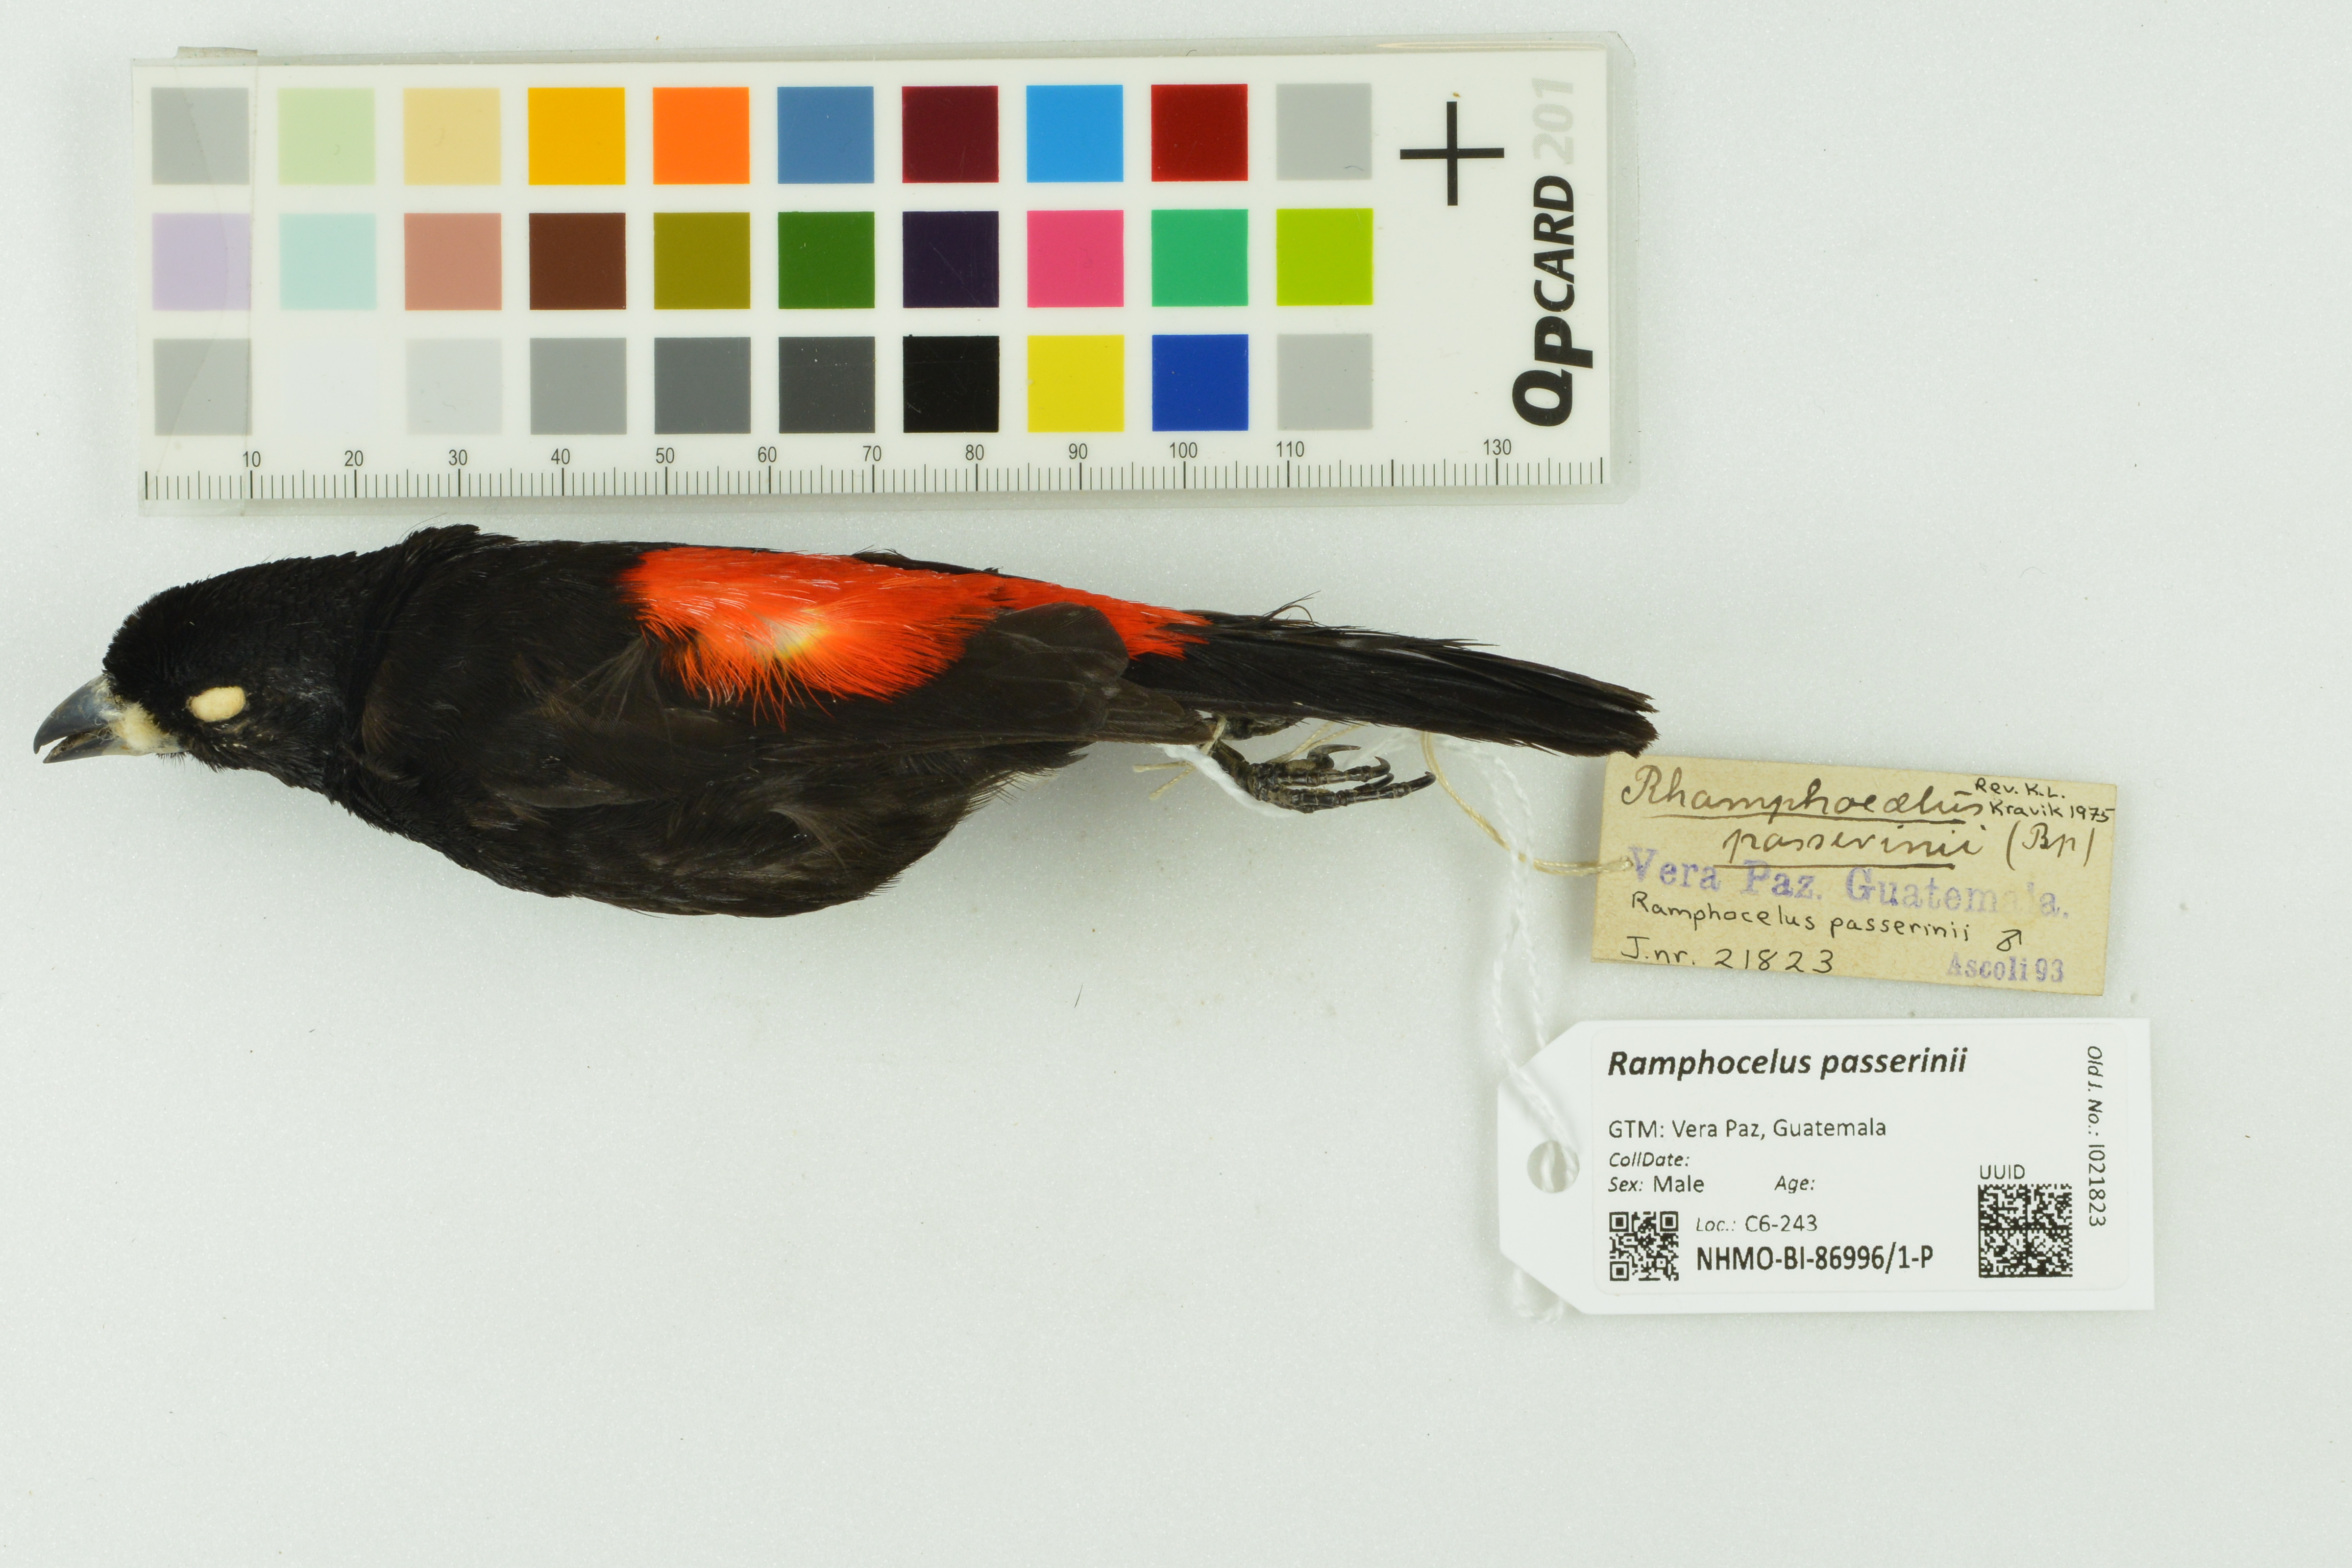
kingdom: Animalia
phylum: Chordata
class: Aves
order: Passeriformes
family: Thraupidae
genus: Ramphocelus
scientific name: Ramphocelus passerinii
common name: Passerini's tanager
